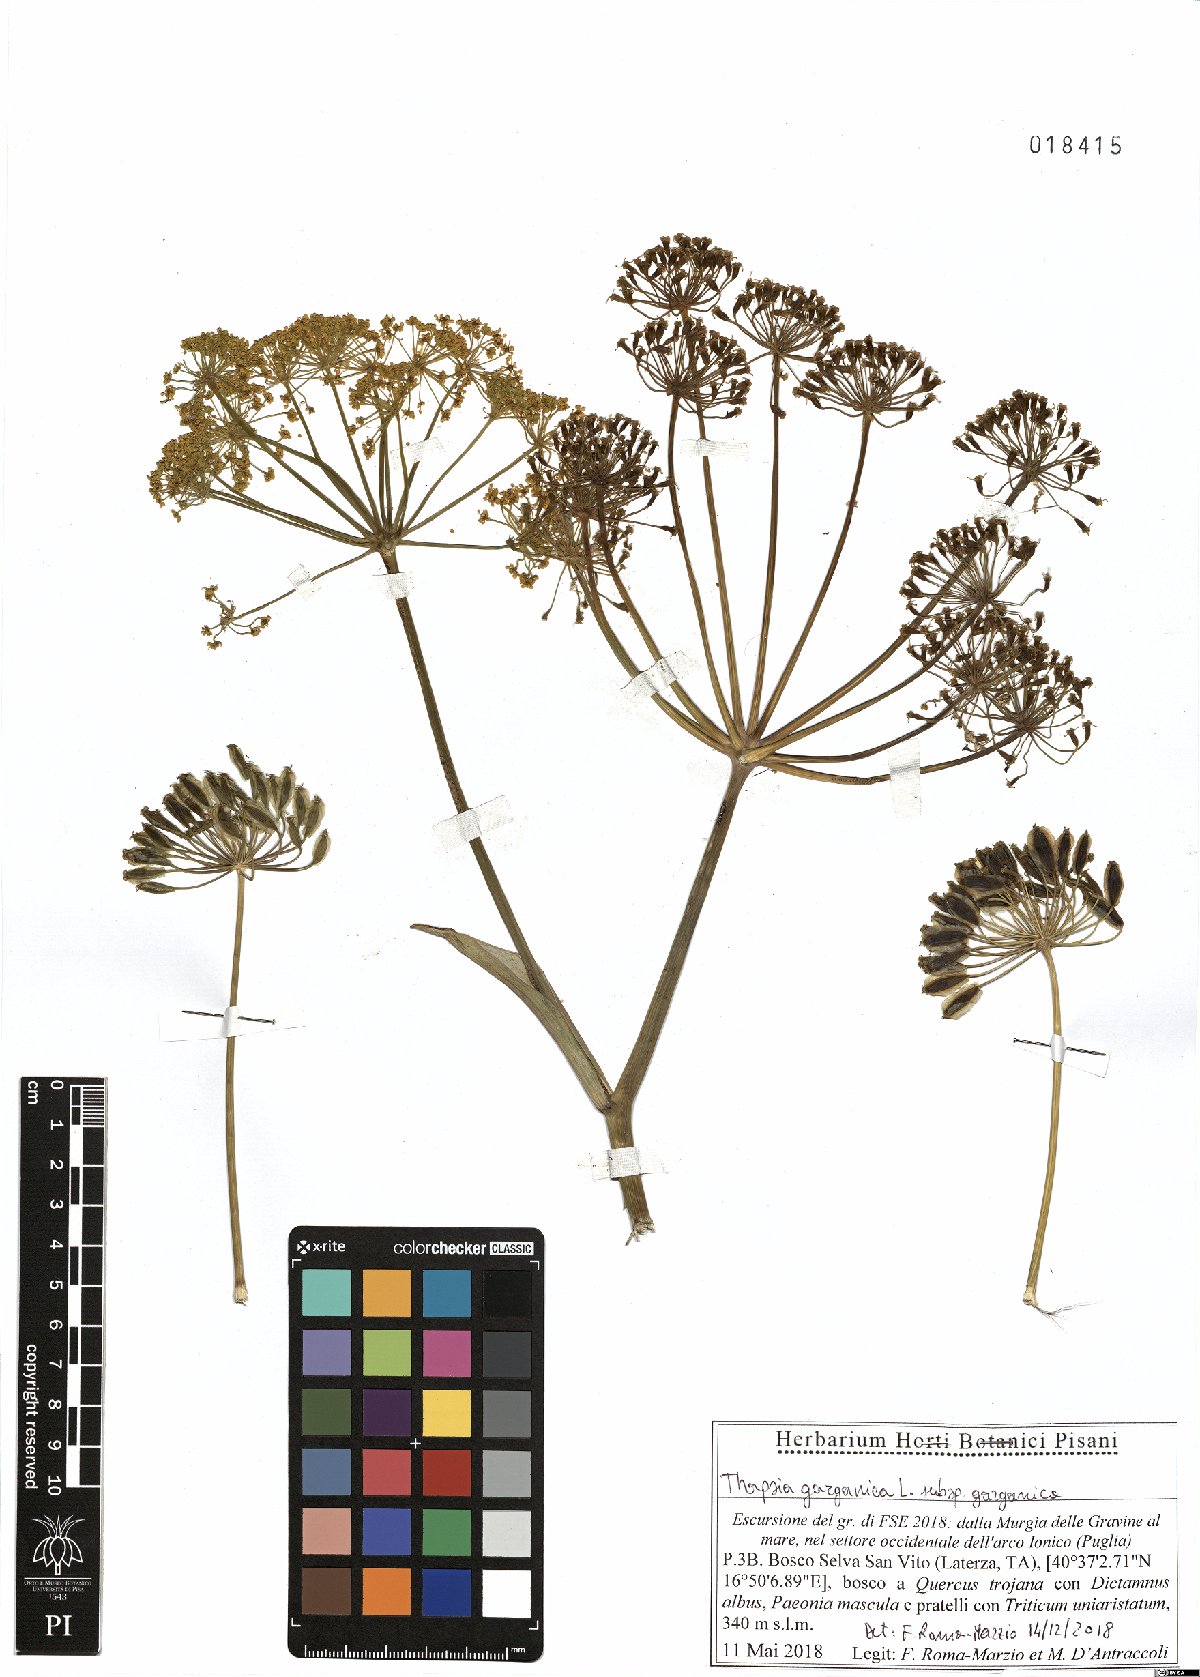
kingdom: Plantae
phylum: Tracheophyta
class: Magnoliopsida
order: Apiales
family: Apiaceae
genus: Thapsia
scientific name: Thapsia garganica
